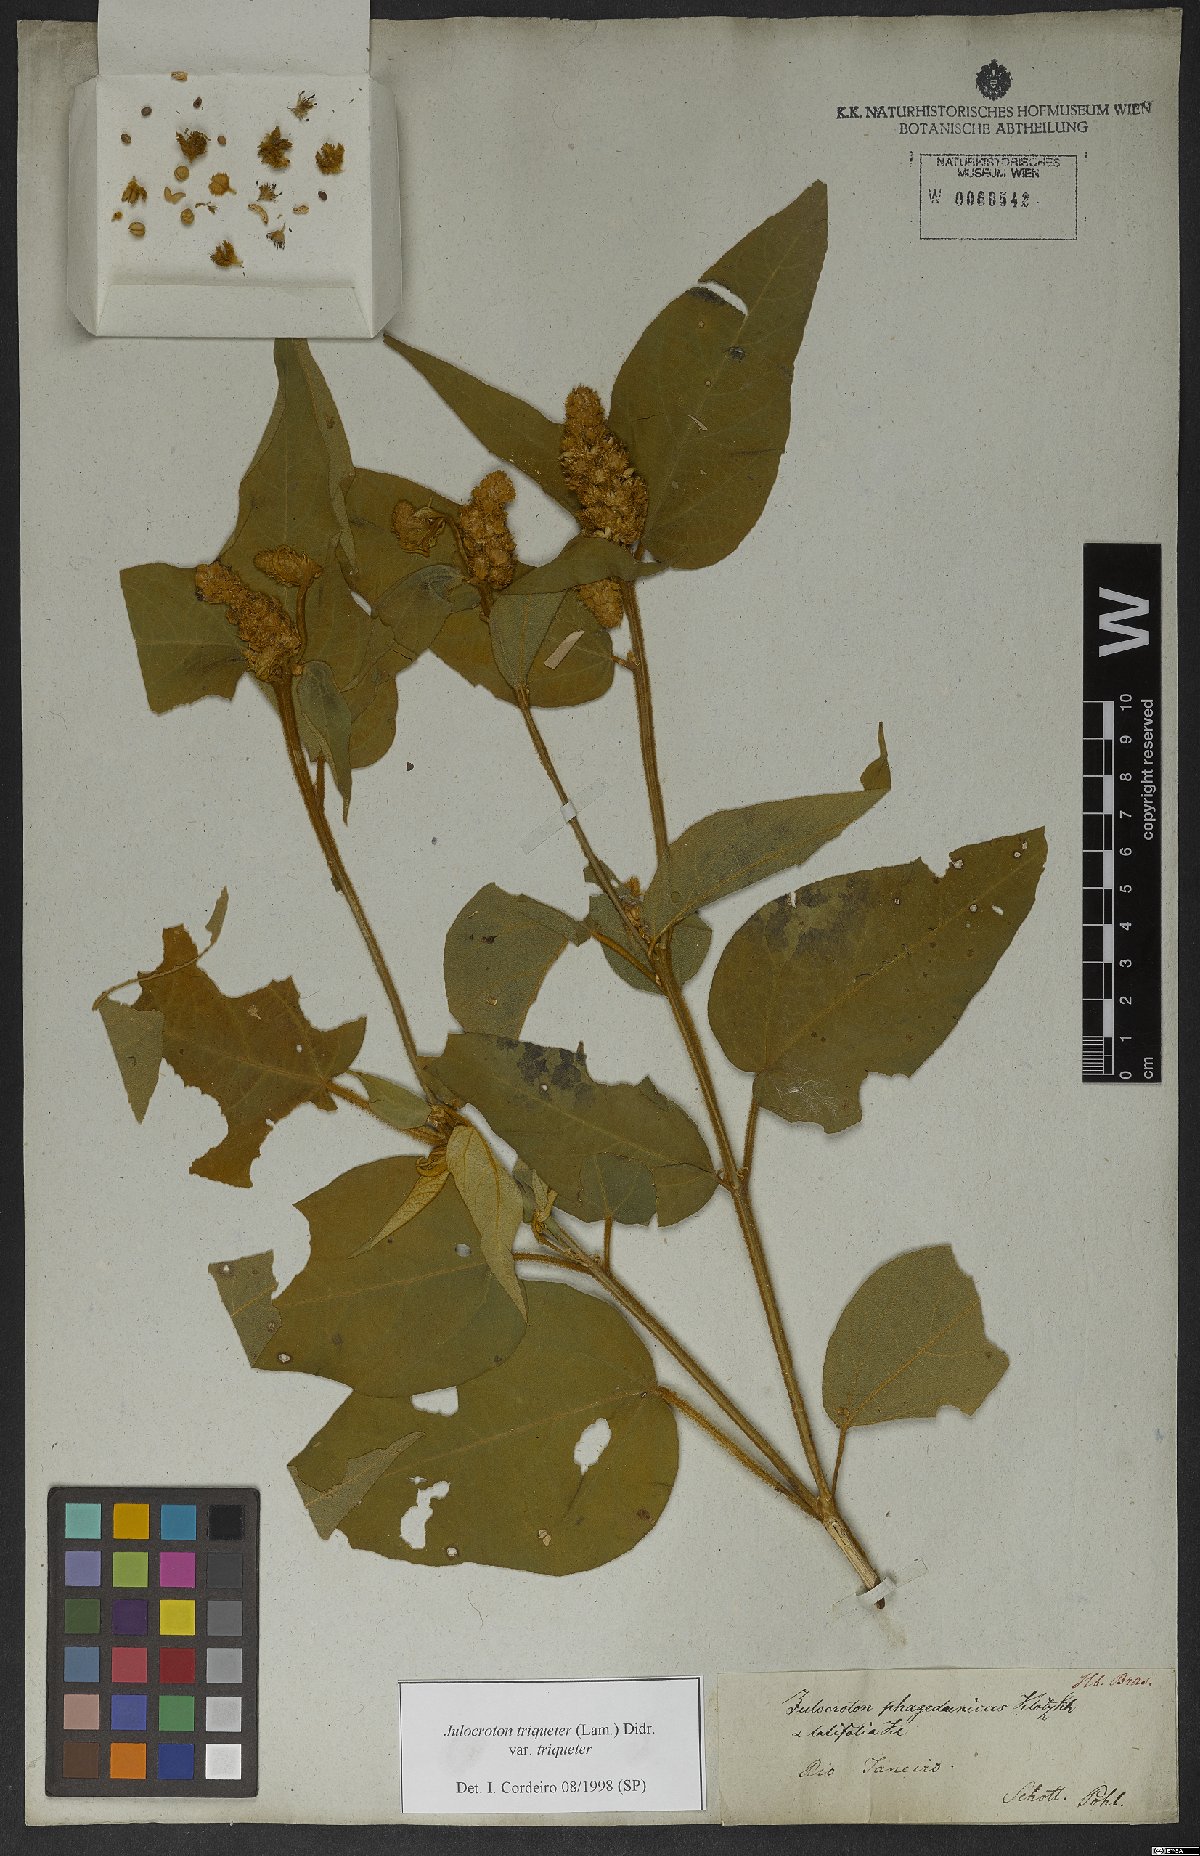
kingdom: Plantae
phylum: Tracheophyta
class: Magnoliopsida
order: Malpighiales
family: Euphorbiaceae
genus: Croton
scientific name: Croton triqueter
